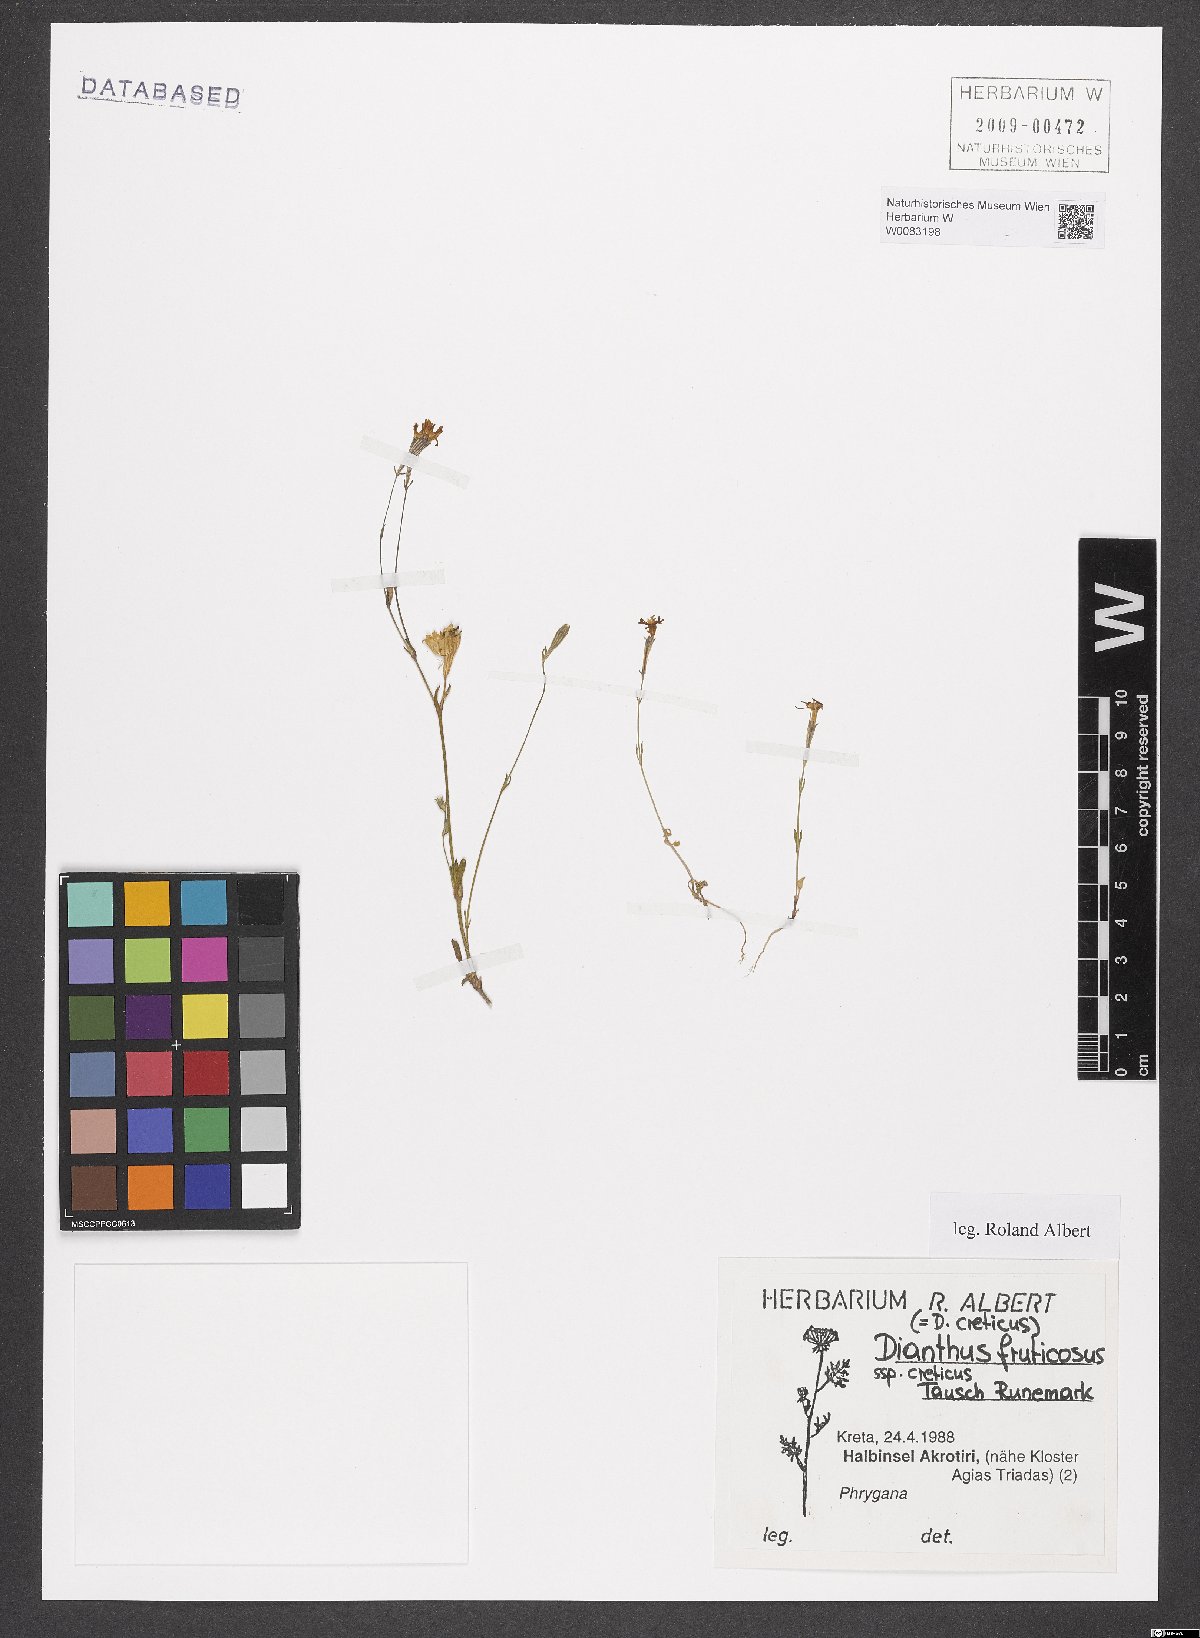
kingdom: Plantae
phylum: Tracheophyta
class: Magnoliopsida
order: Caryophyllales
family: Caryophyllaceae
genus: Dianthus
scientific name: Dianthus fruticosus
